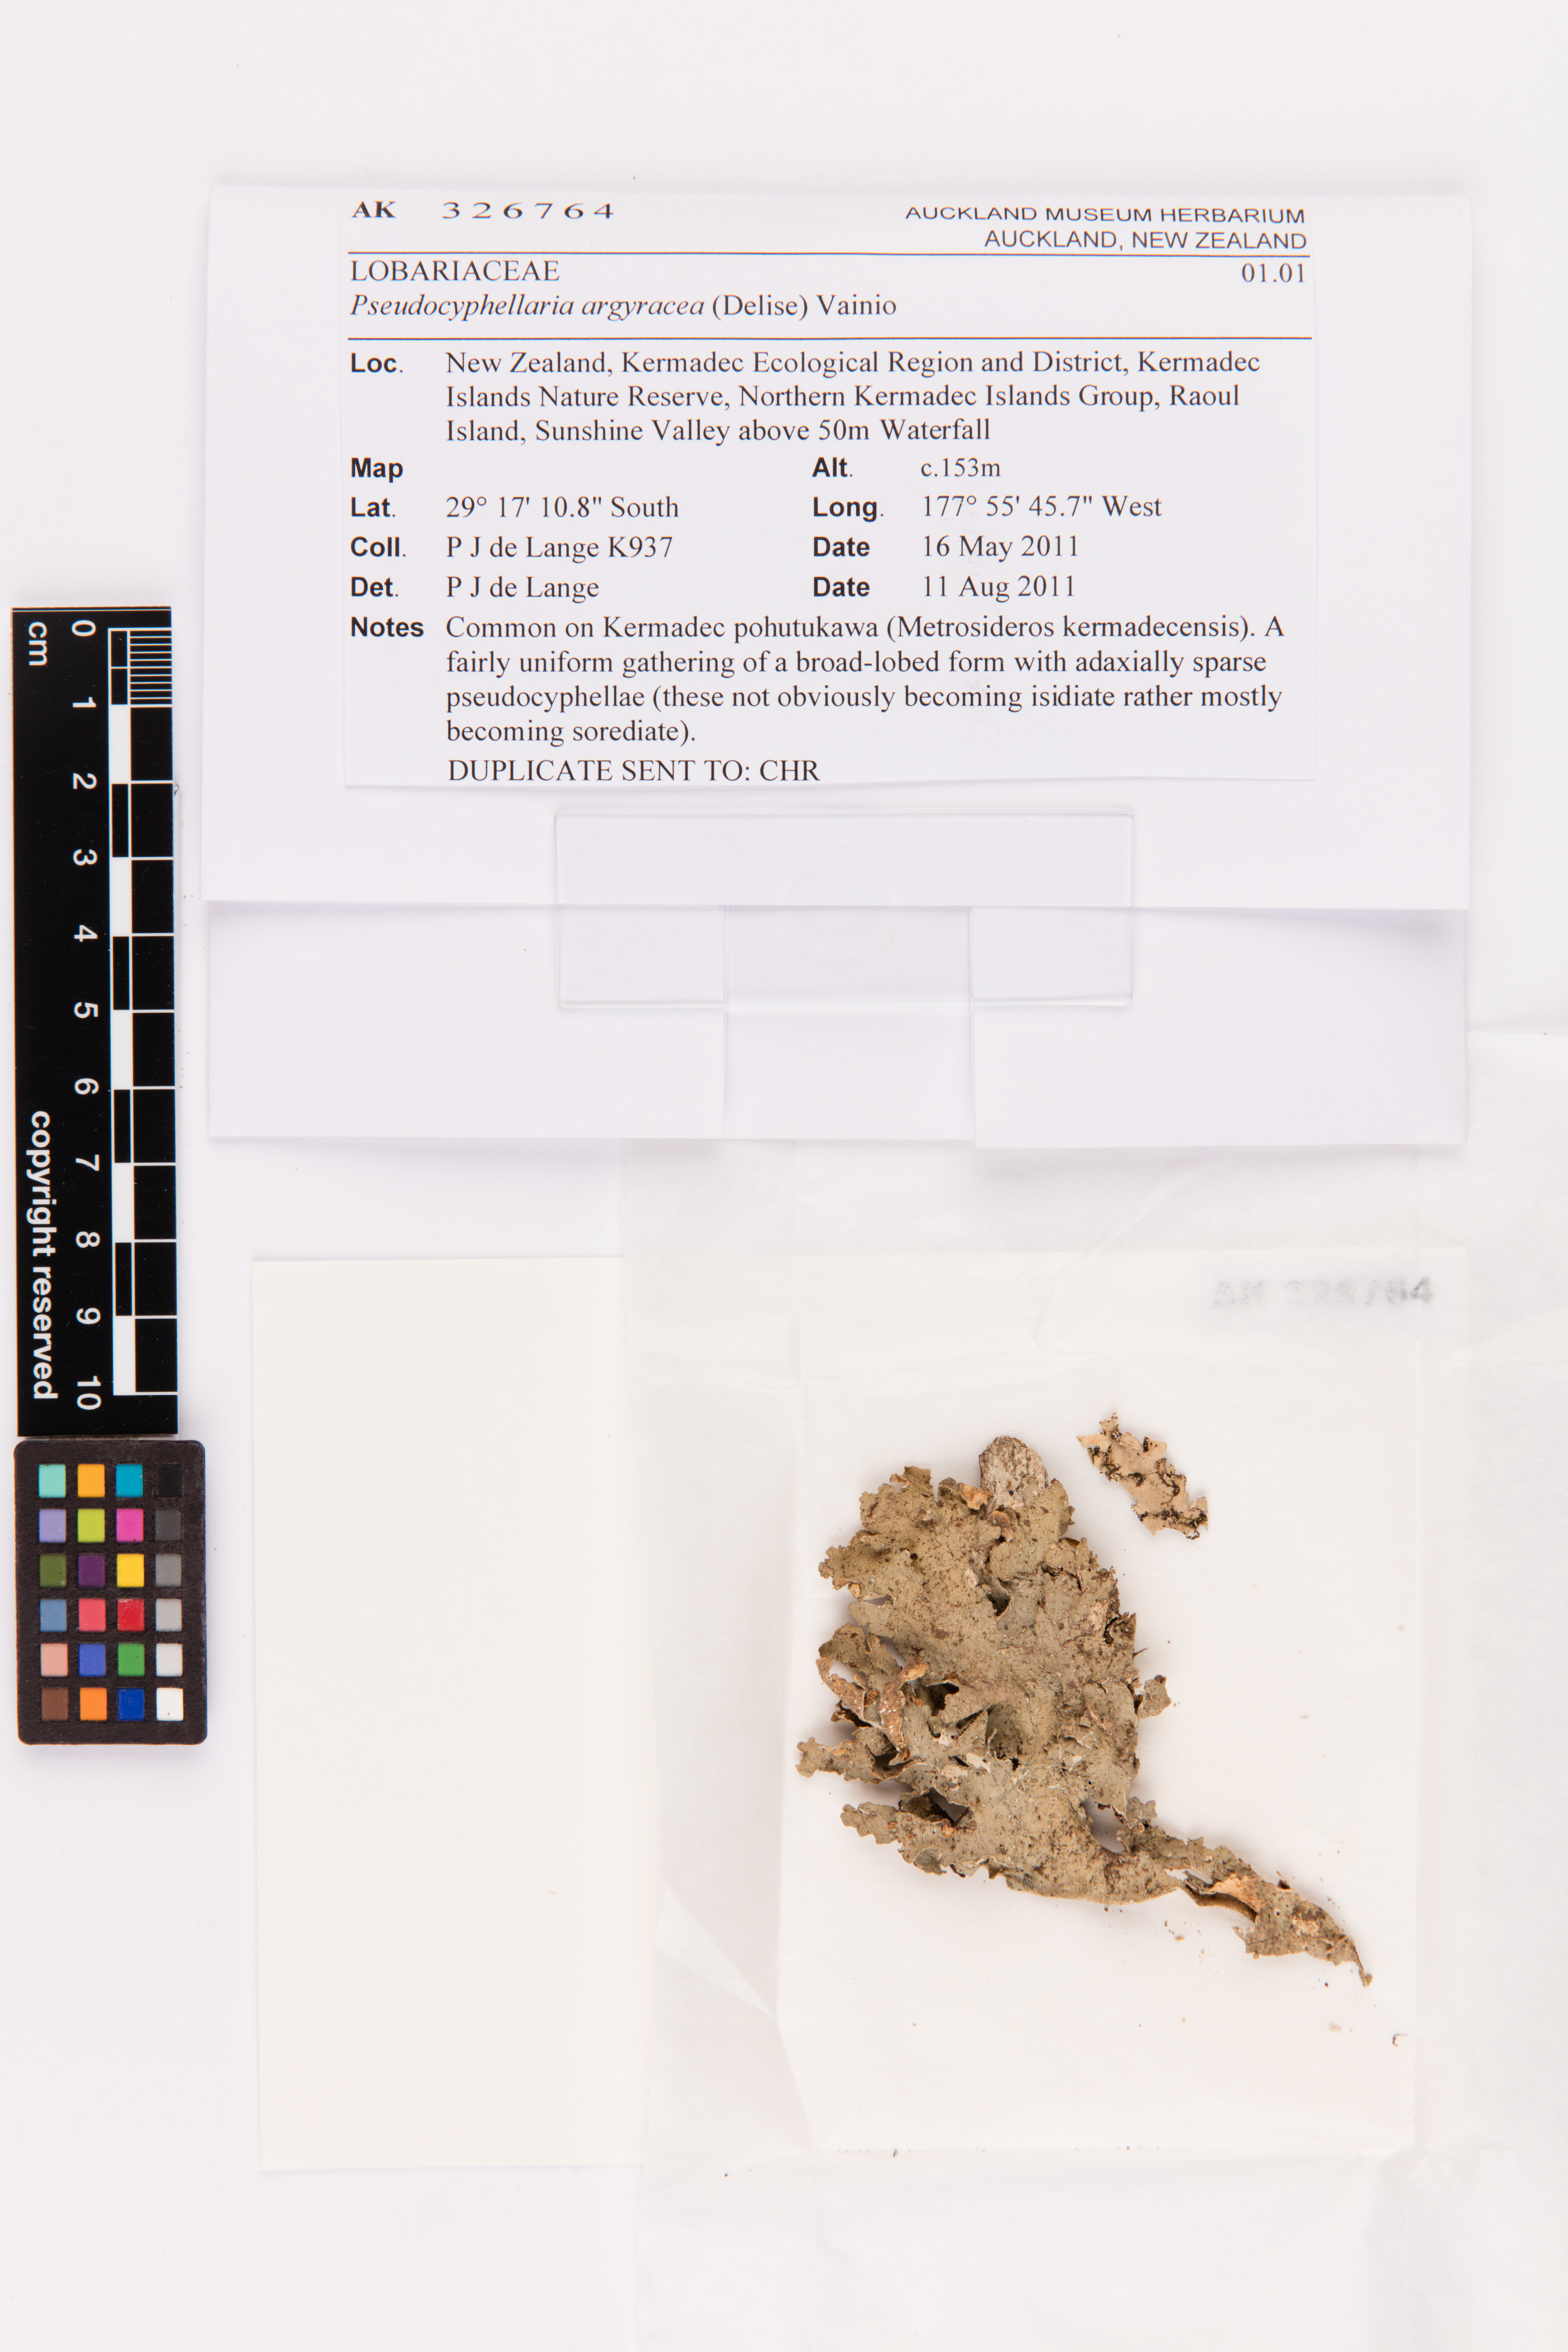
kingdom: Fungi
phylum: Ascomycota
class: Lecanoromycetes
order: Peltigerales
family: Lobariaceae
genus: Pseudocyphellaria
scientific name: Pseudocyphellaria argyracea
